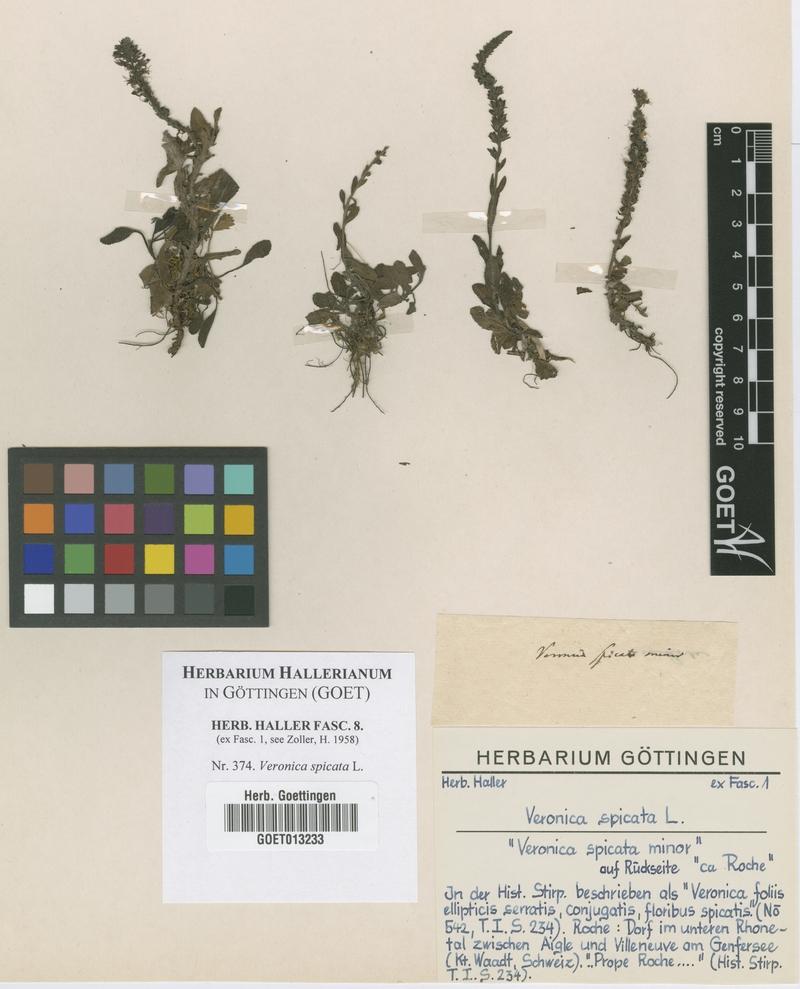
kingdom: Plantae
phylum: Tracheophyta
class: Magnoliopsida
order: Lamiales
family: Plantaginaceae
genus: Veronica
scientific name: Veronica spicata
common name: Spiked speedwell
